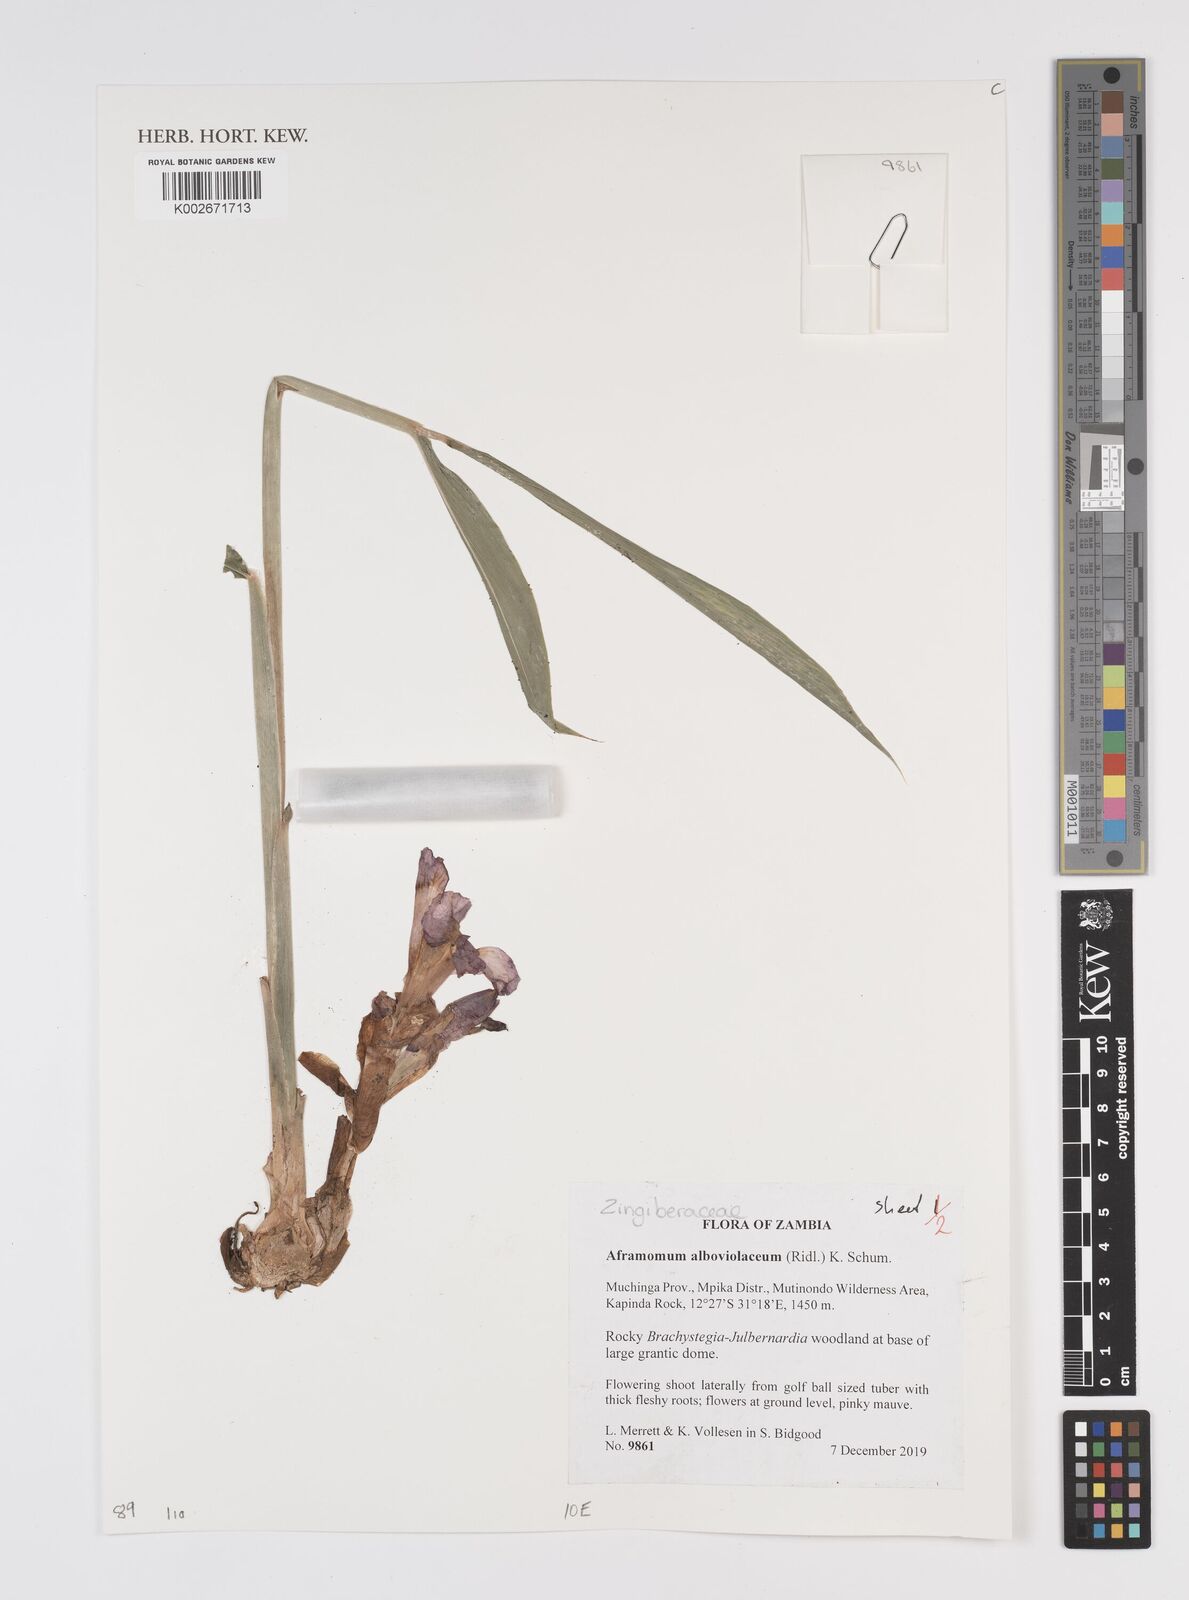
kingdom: Plantae
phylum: Tracheophyta
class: Liliopsida
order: Zingiberales
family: Zingiberaceae
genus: Aframomum
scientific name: Aframomum alboviolaceum
